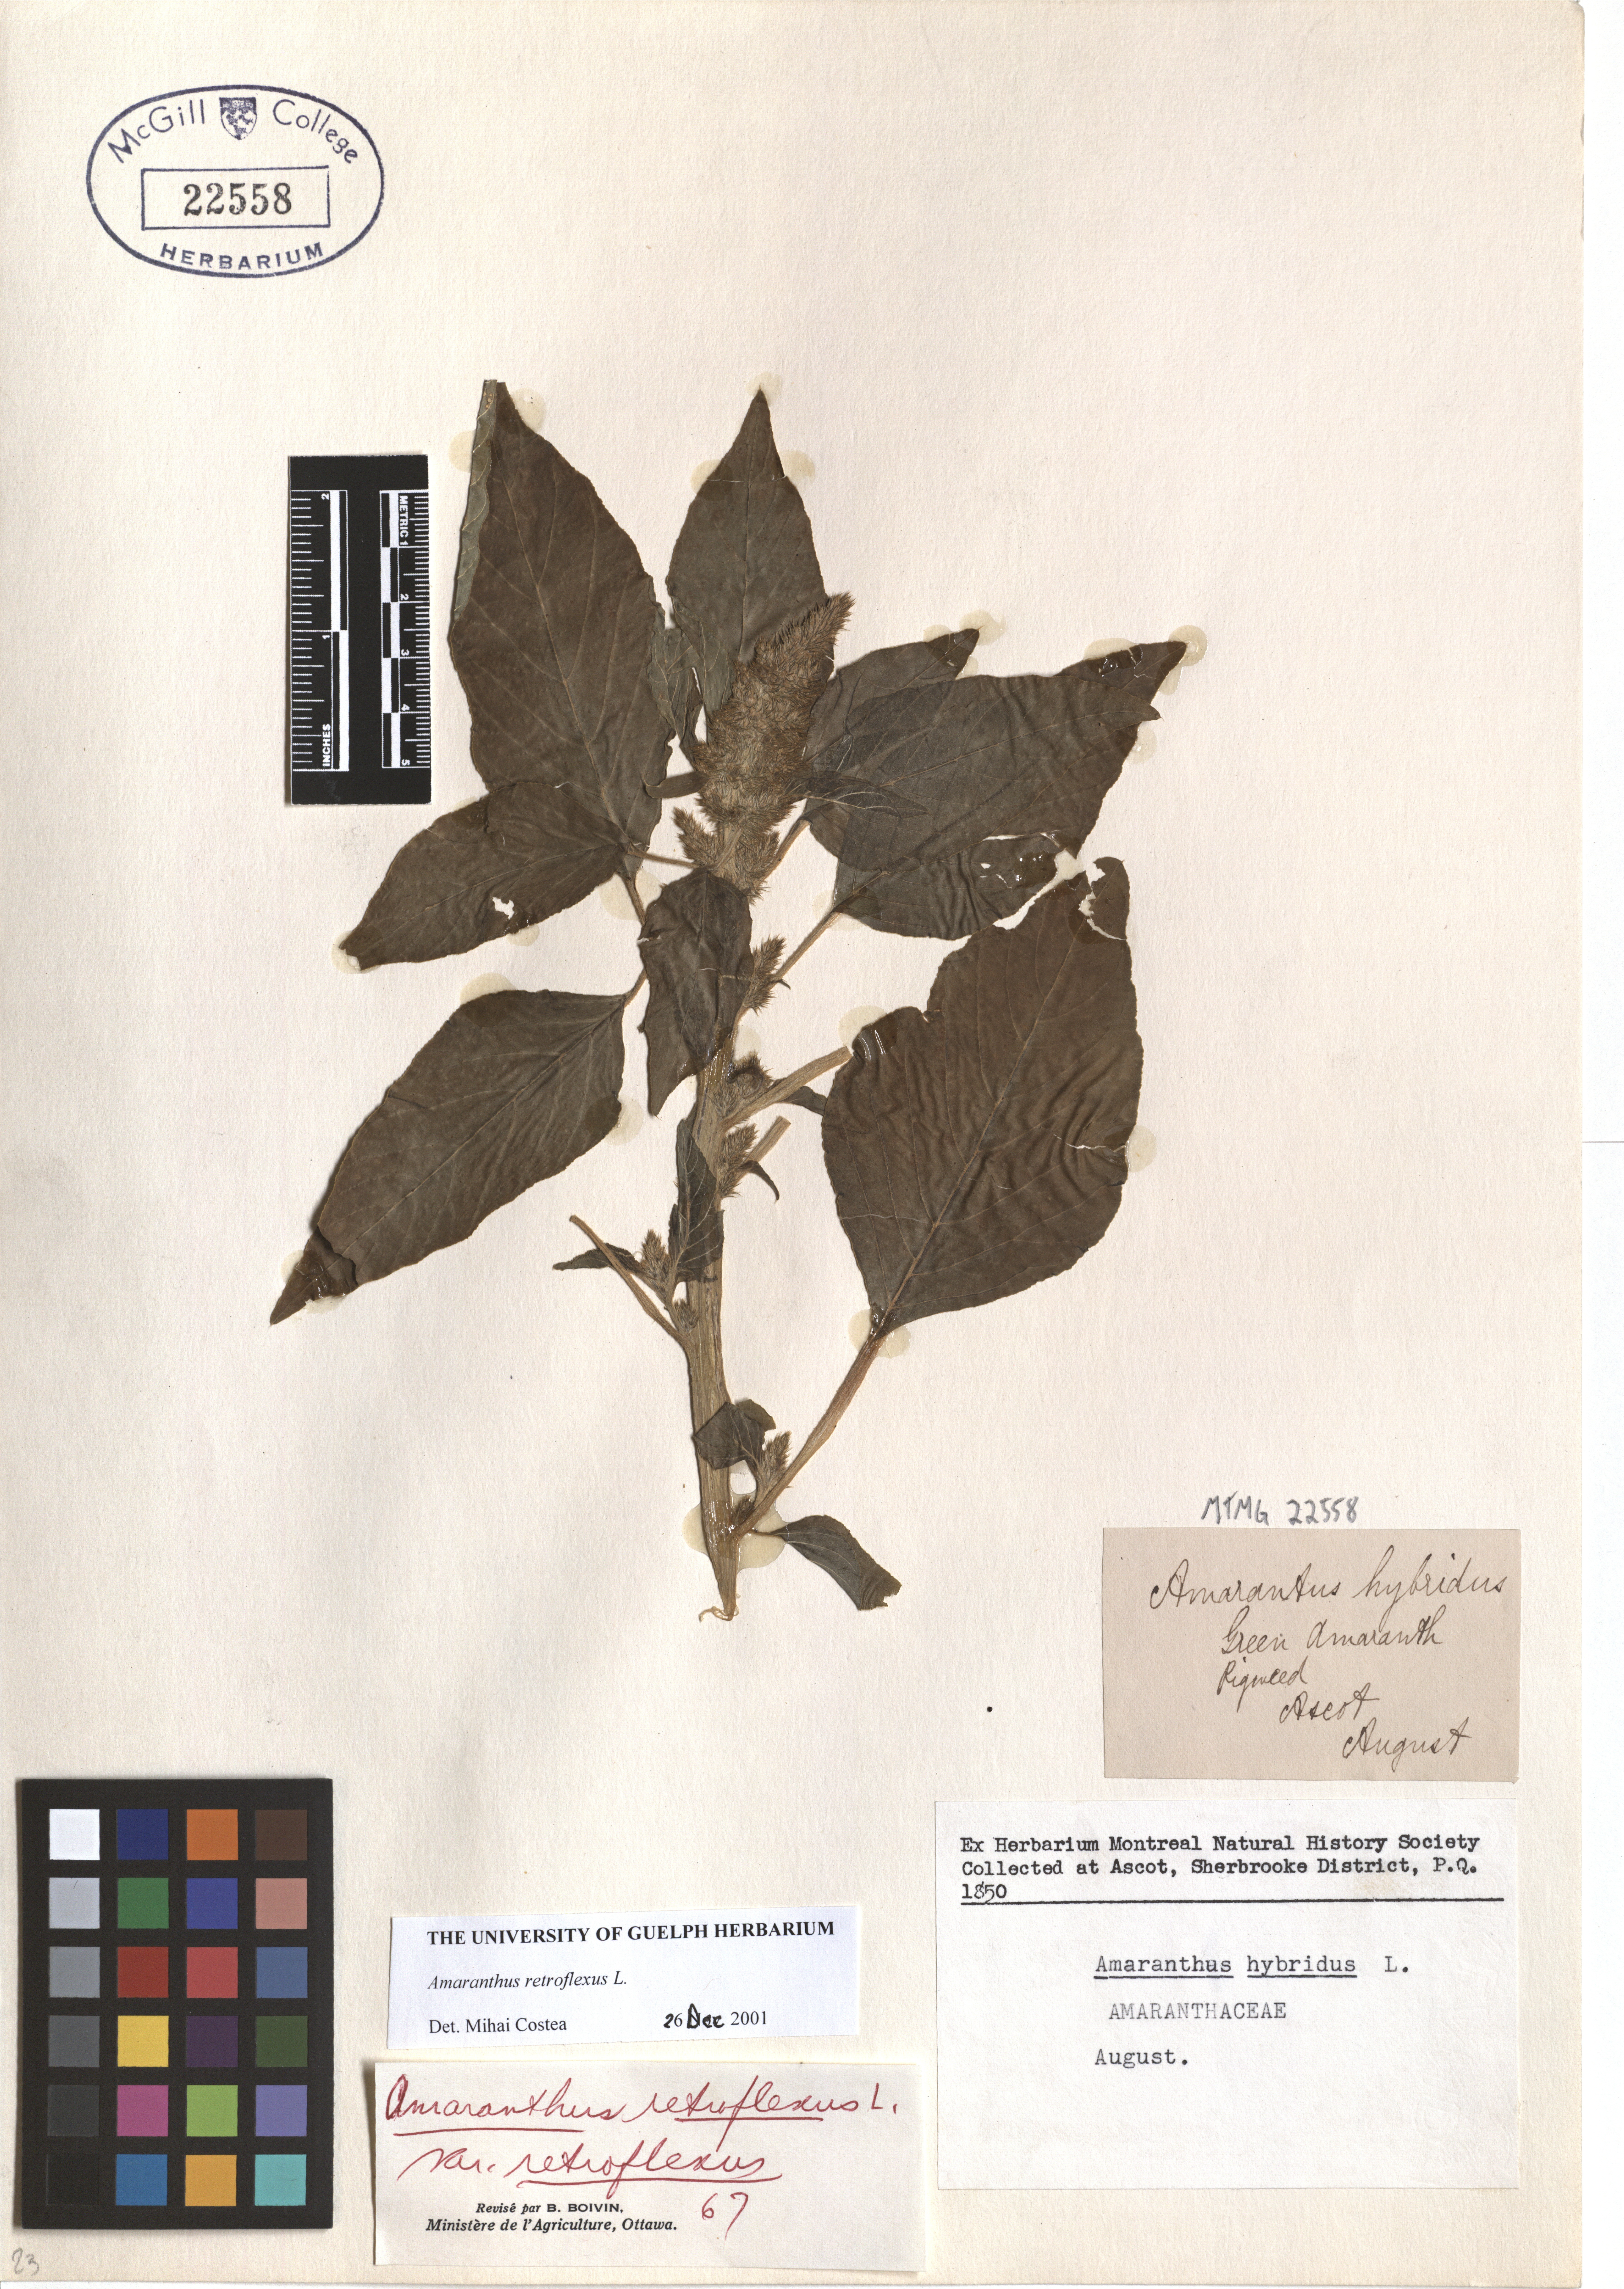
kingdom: Plantae
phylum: Tracheophyta
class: Magnoliopsida
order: Caryophyllales
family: Amaranthaceae
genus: Amaranthus
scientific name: Amaranthus retroflexus
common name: Redroot amaranth
